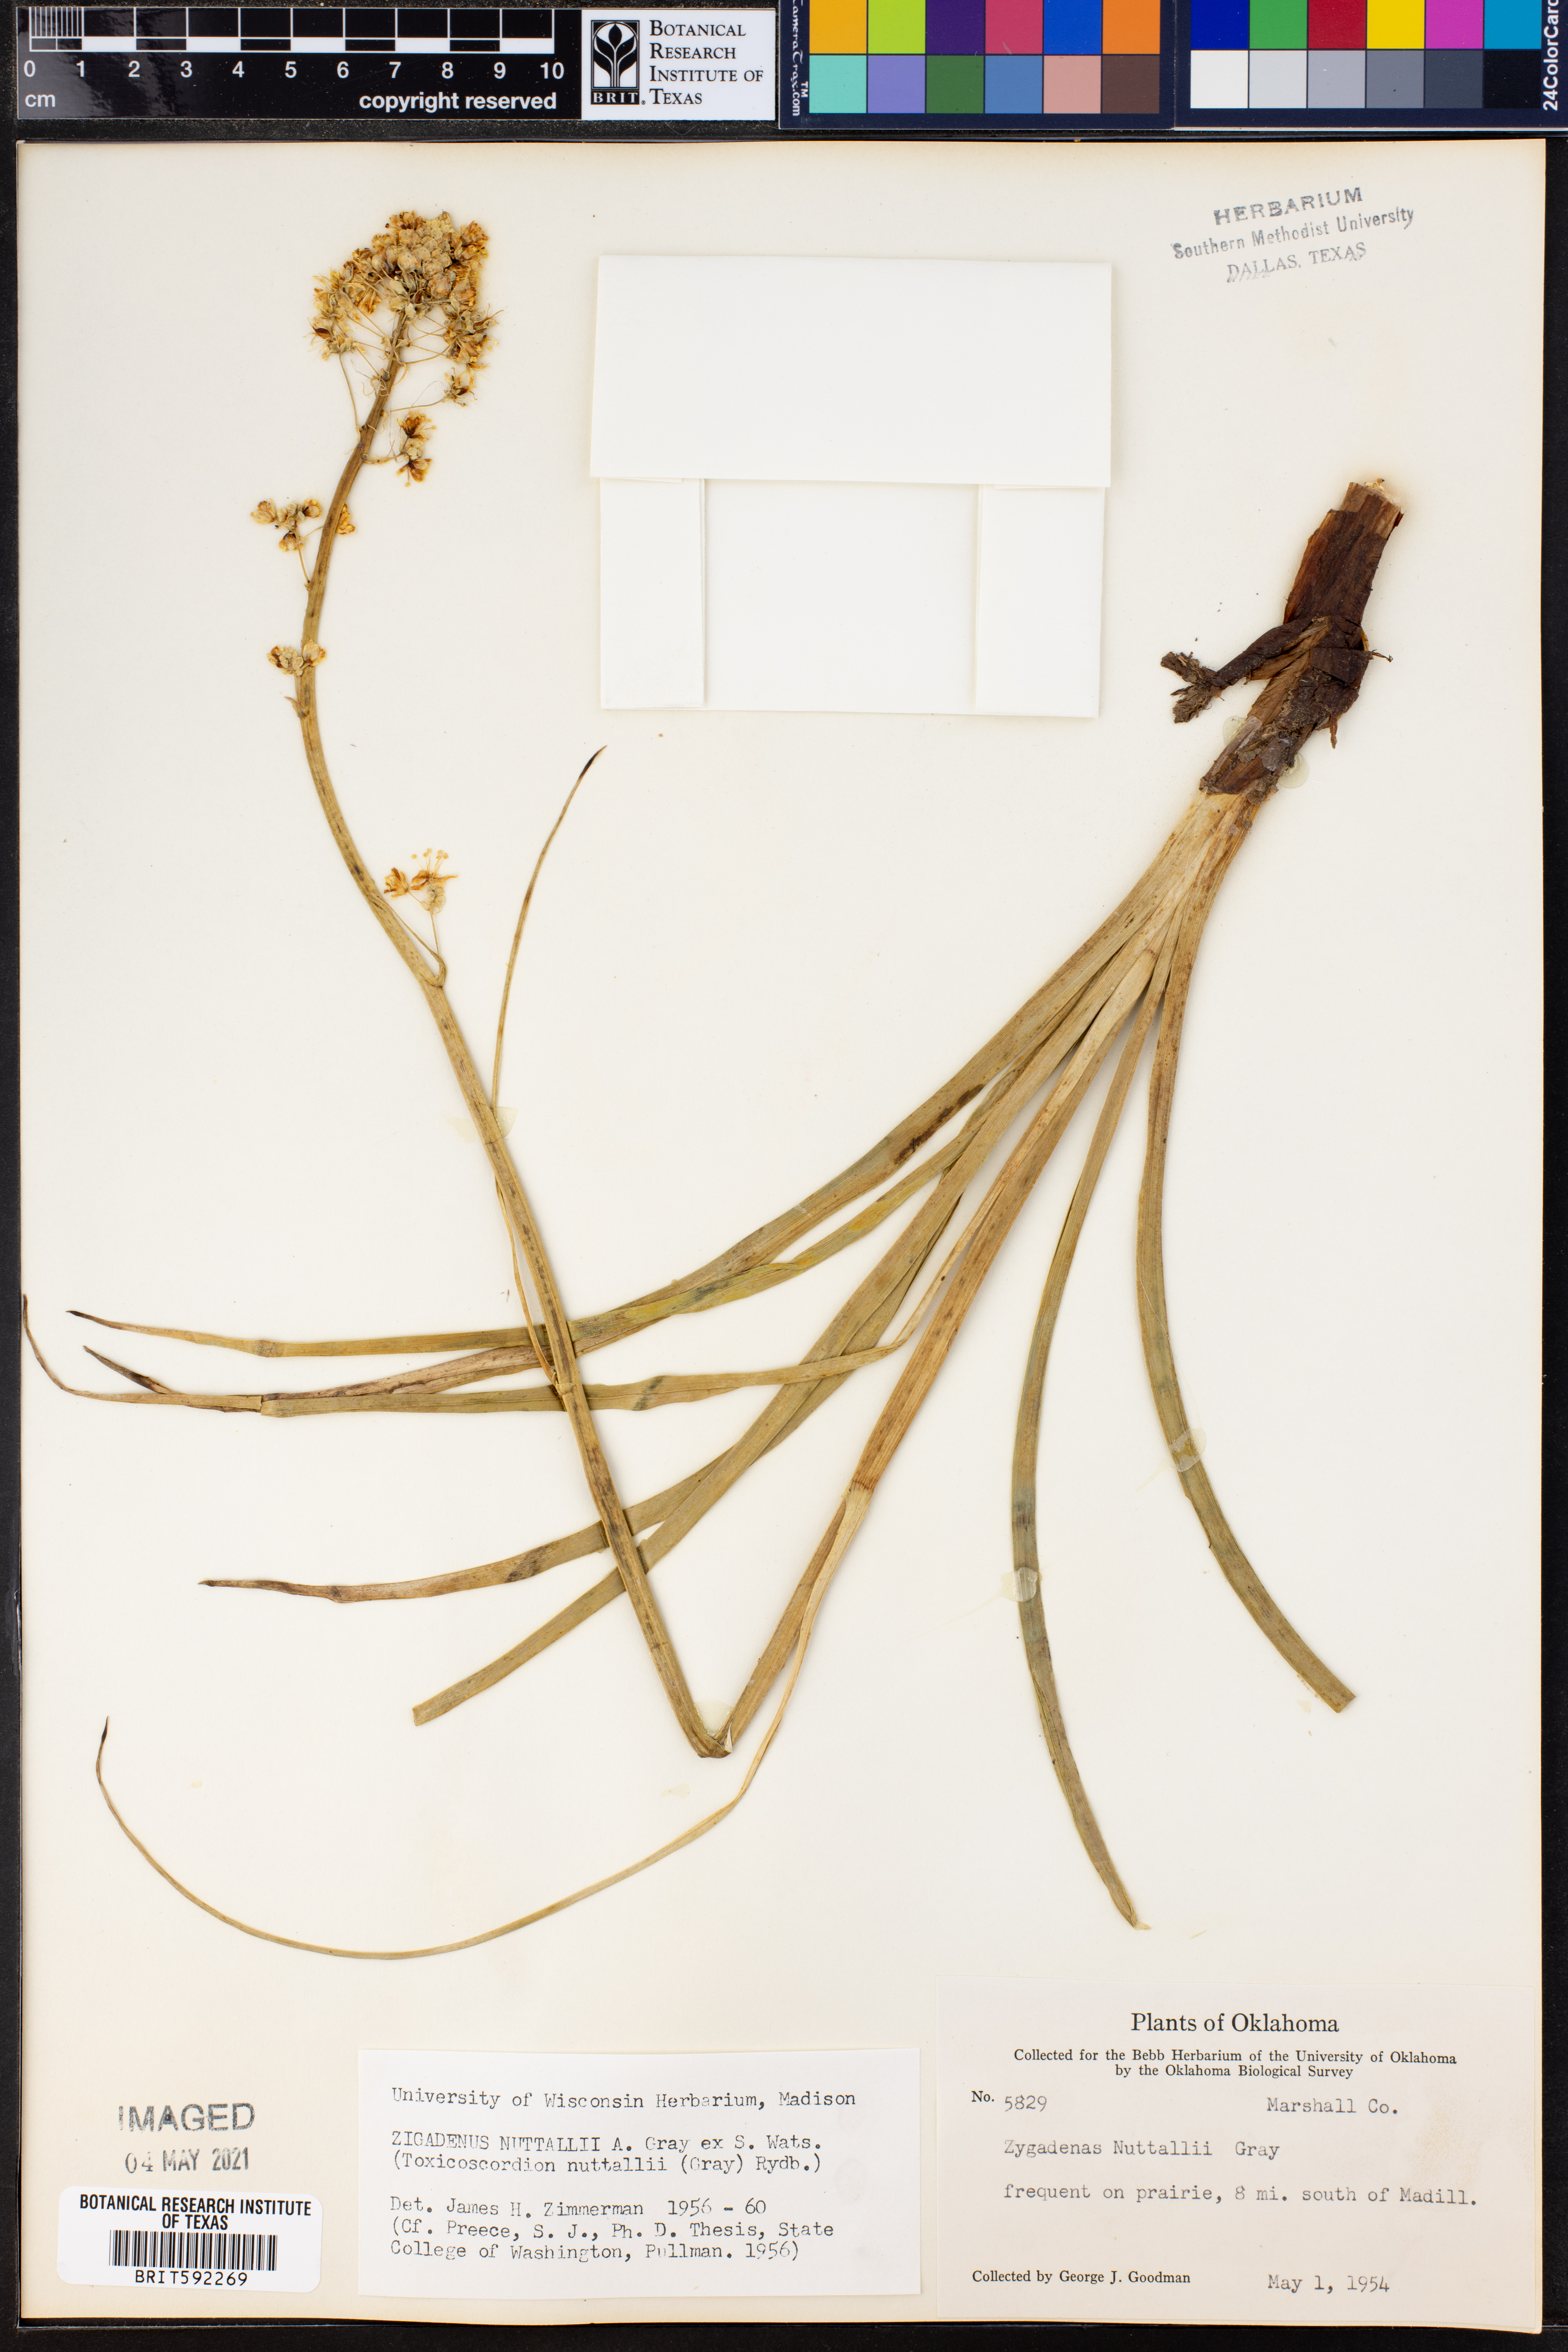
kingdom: Plantae
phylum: Tracheophyta
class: Liliopsida
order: Liliales
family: Melanthiaceae
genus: Toxicoscordion
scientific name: Toxicoscordion nuttallii
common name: Poison sego
